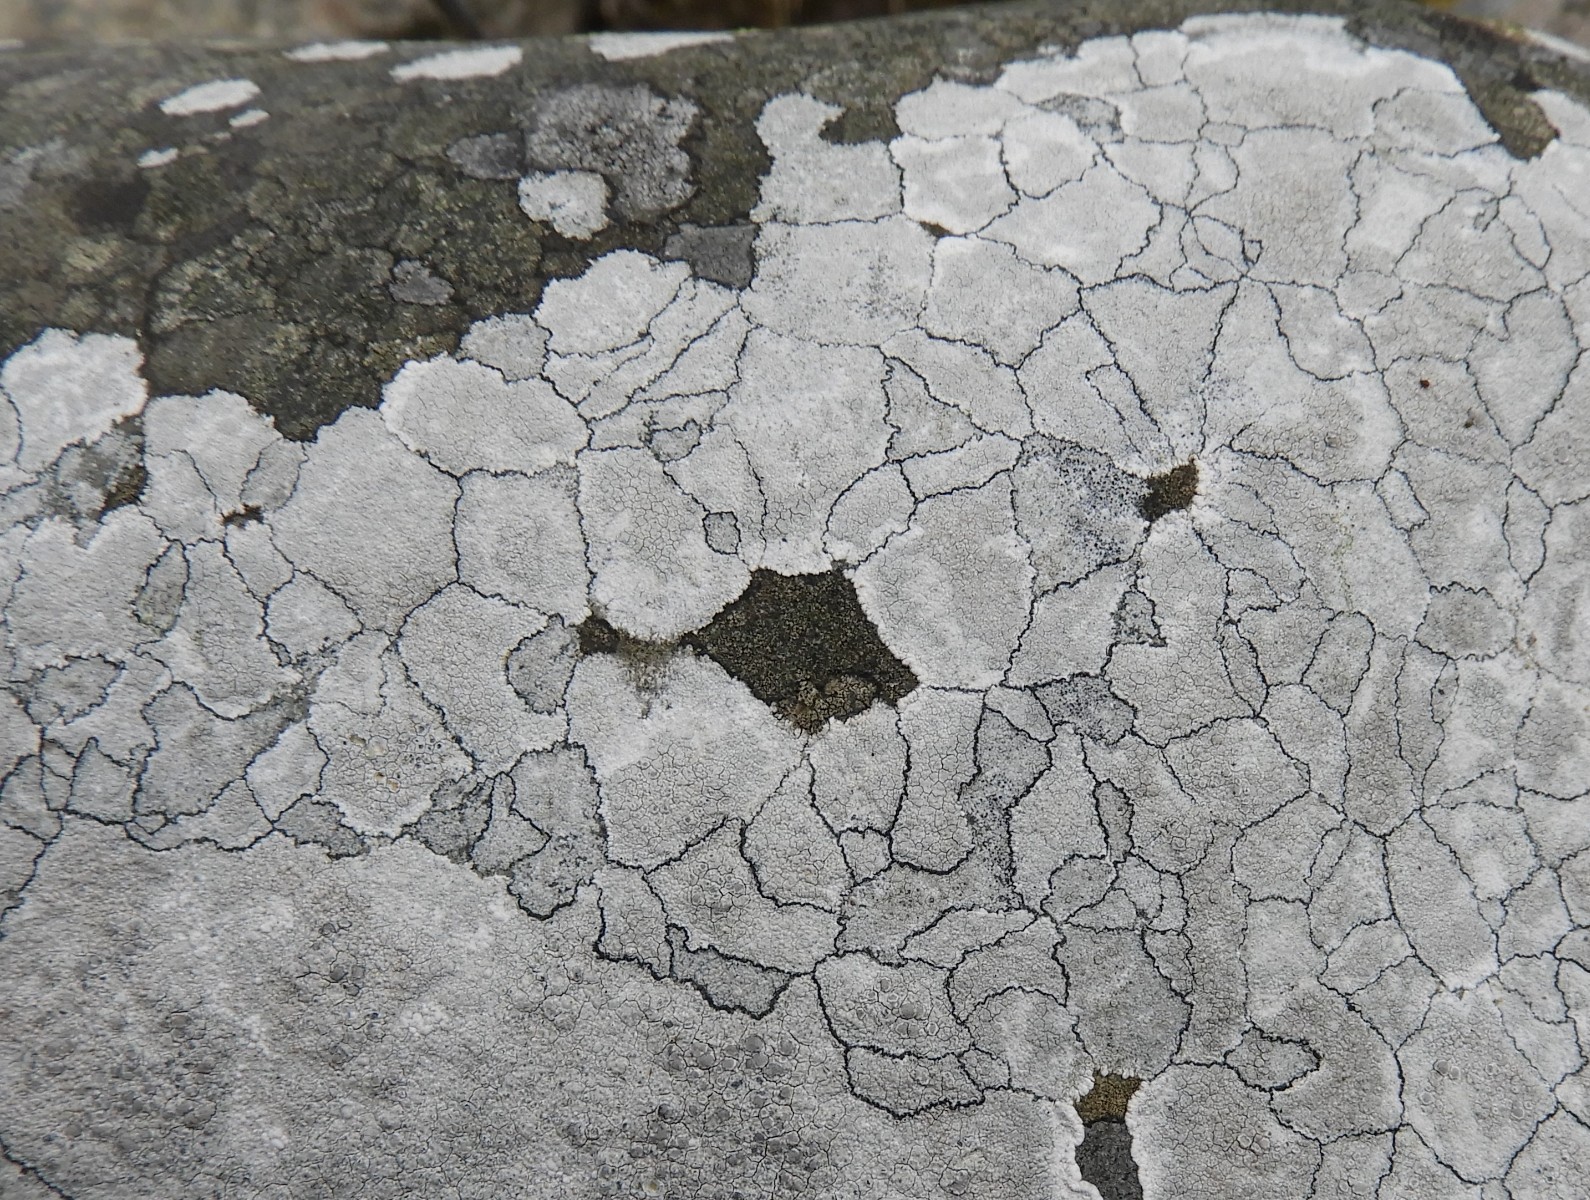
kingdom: Fungi
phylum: Ascomycota
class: Lecanoromycetes
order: Lecanorales
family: Lecanoraceae
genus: Glaucomaria
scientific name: Glaucomaria rupicola
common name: stengærde-kantskivelav
